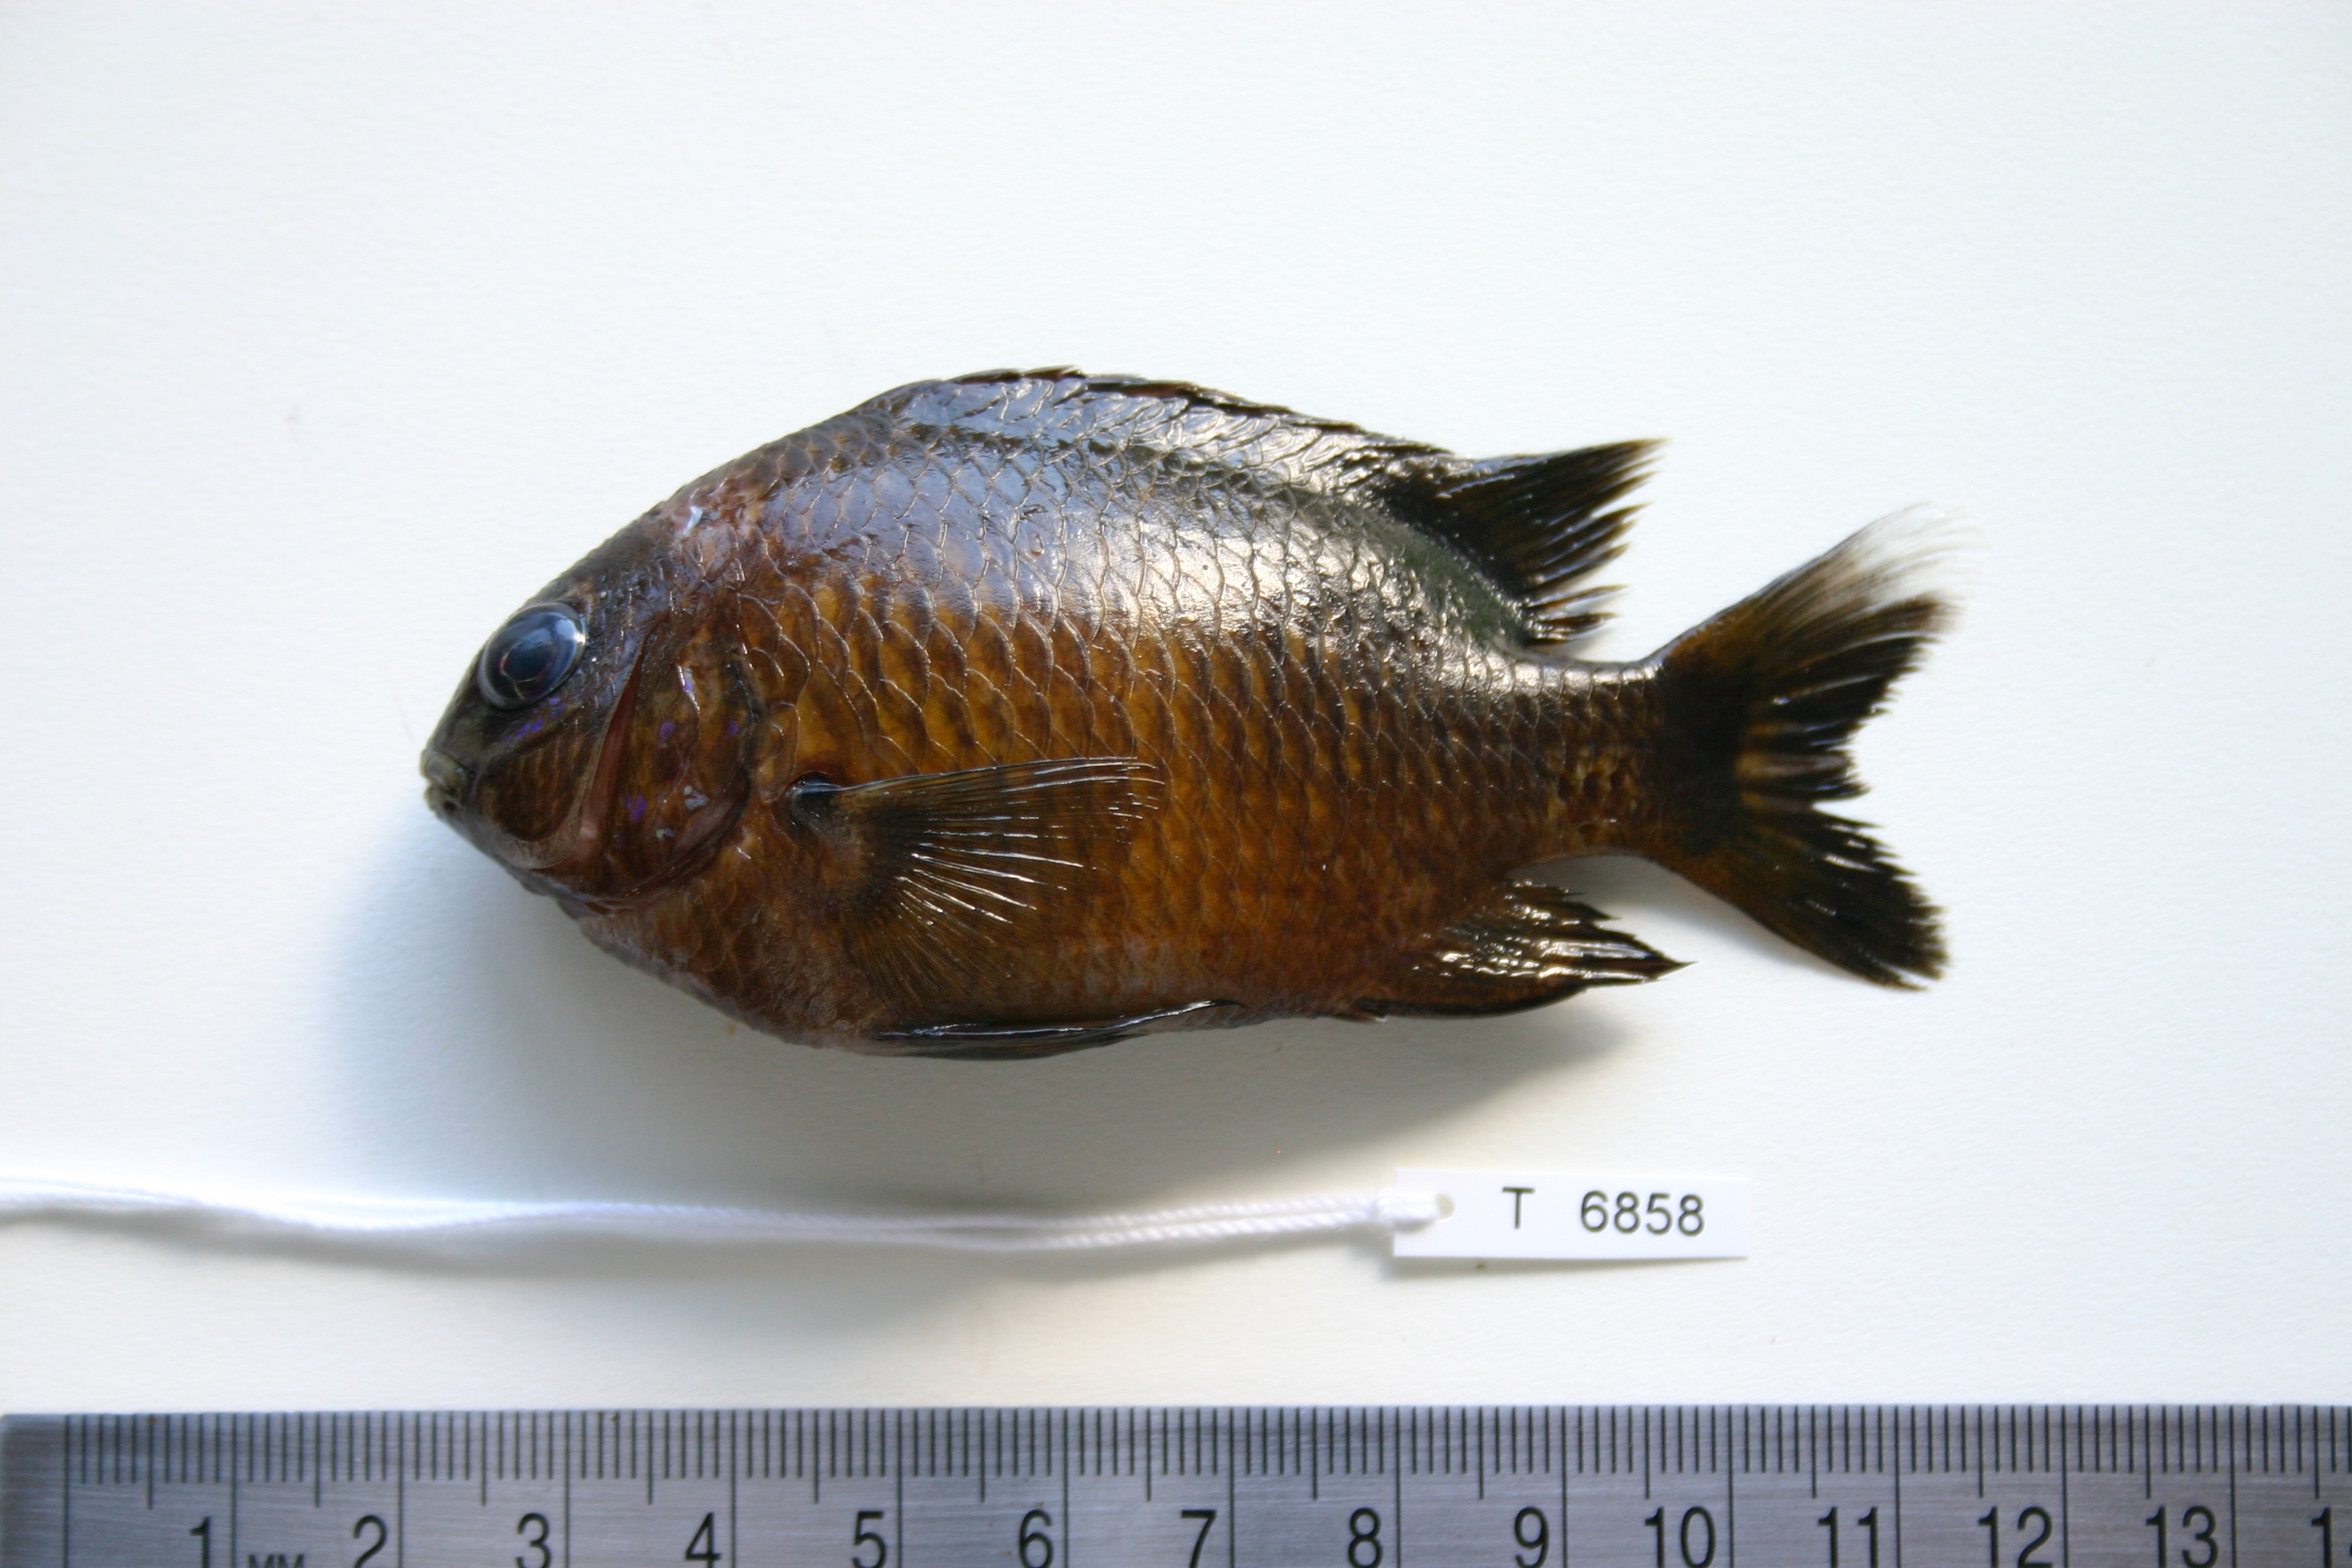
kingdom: Animalia
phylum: Chordata
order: Perciformes
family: Pomacentridae
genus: Plectroglyphidodon
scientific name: Plectroglyphidodon leucozonus
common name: White-band damsel
